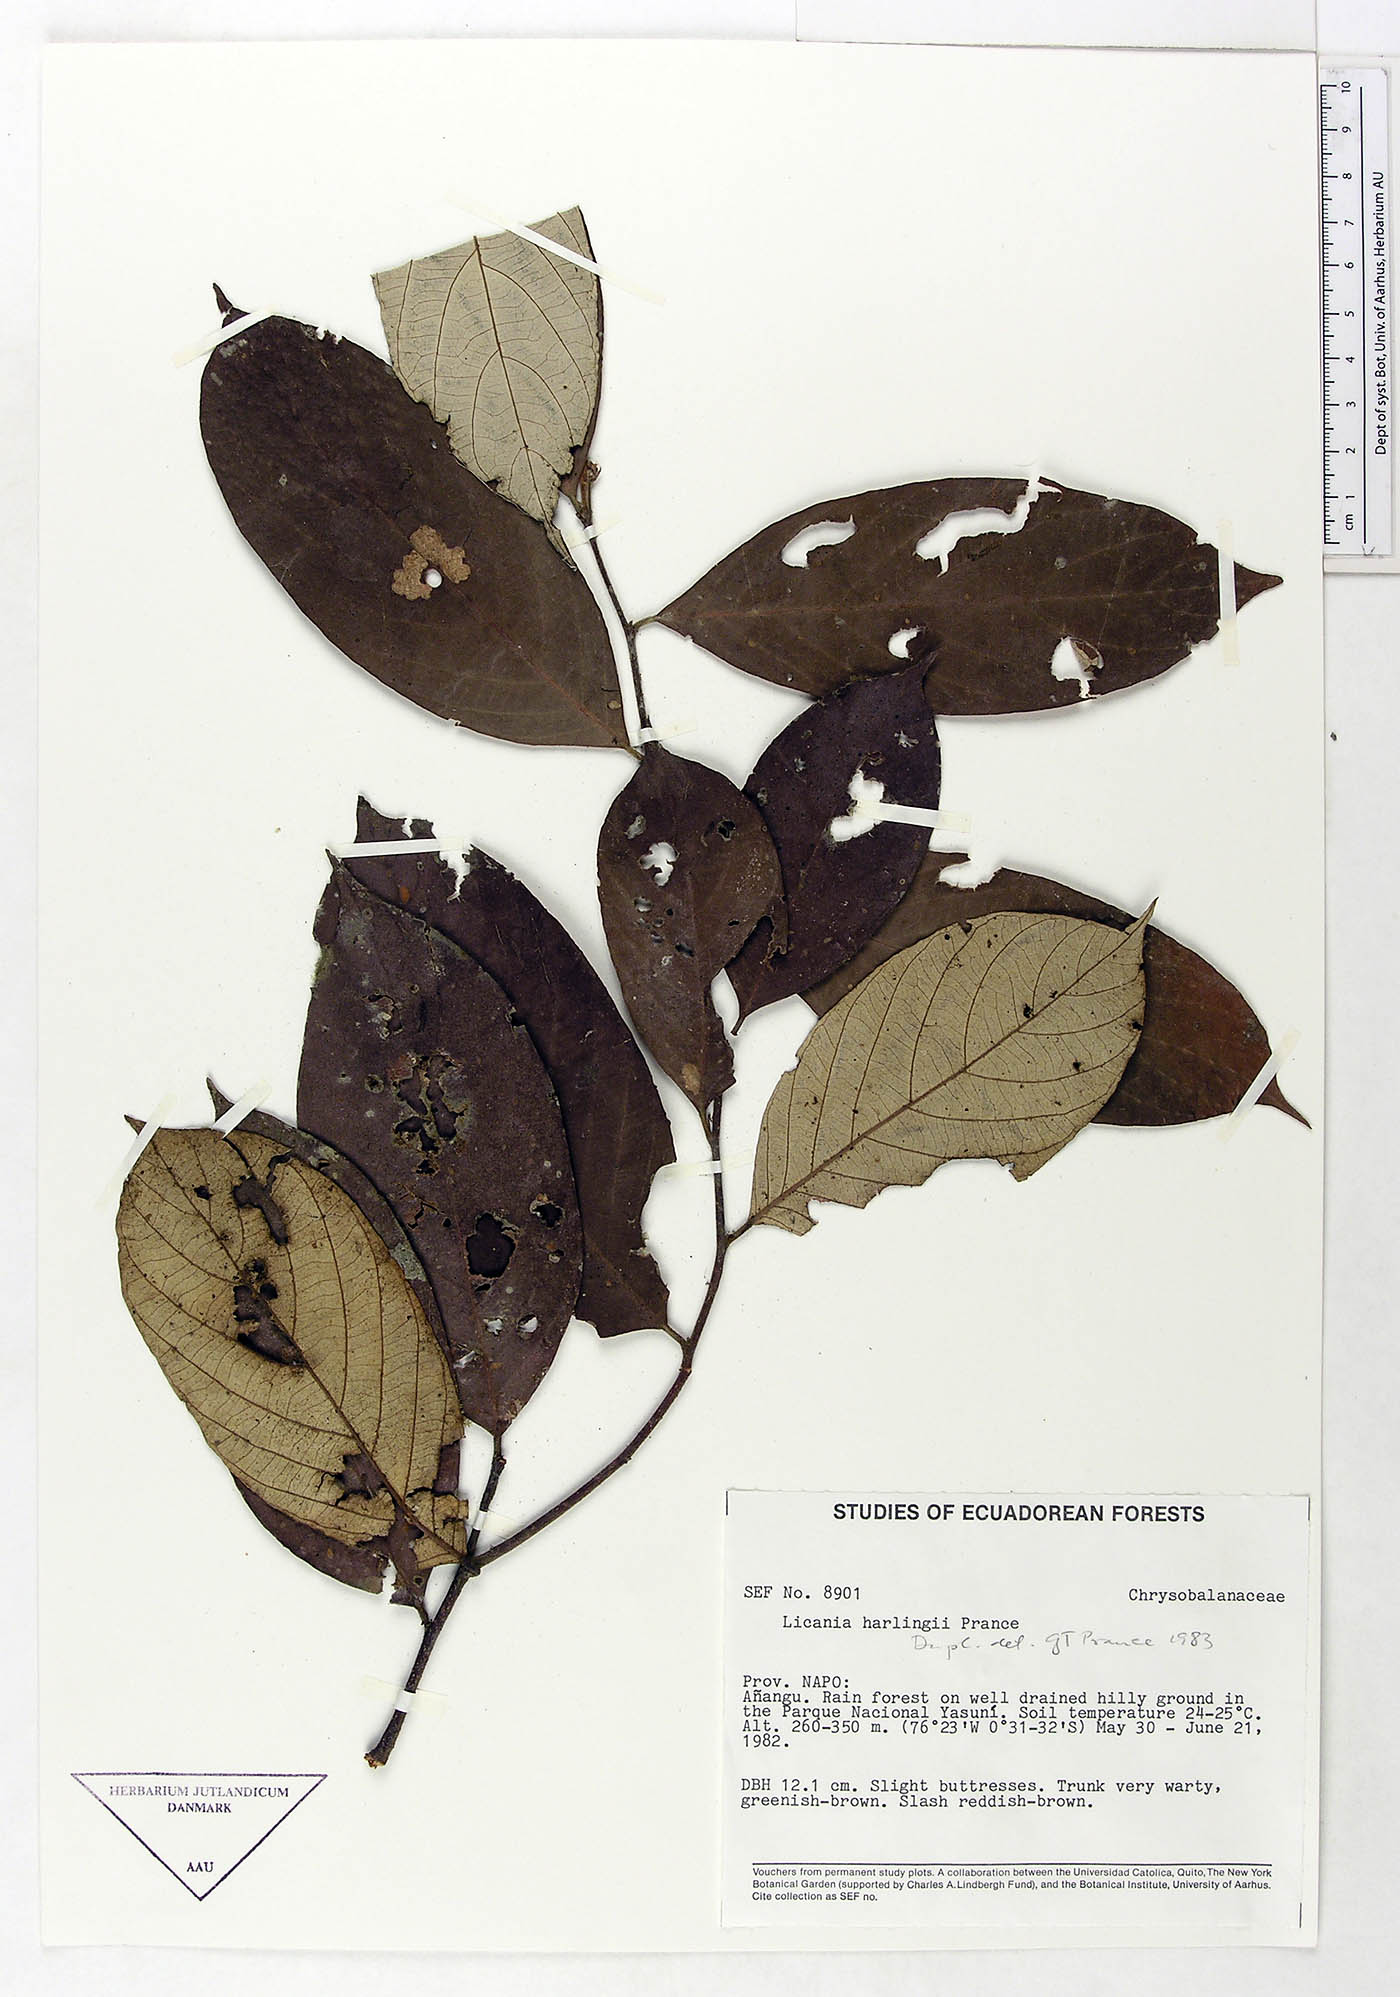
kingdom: Plantae
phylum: Tracheophyta
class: Magnoliopsida
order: Malpighiales
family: Chrysobalanaceae
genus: Licania
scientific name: Licania harlingii
